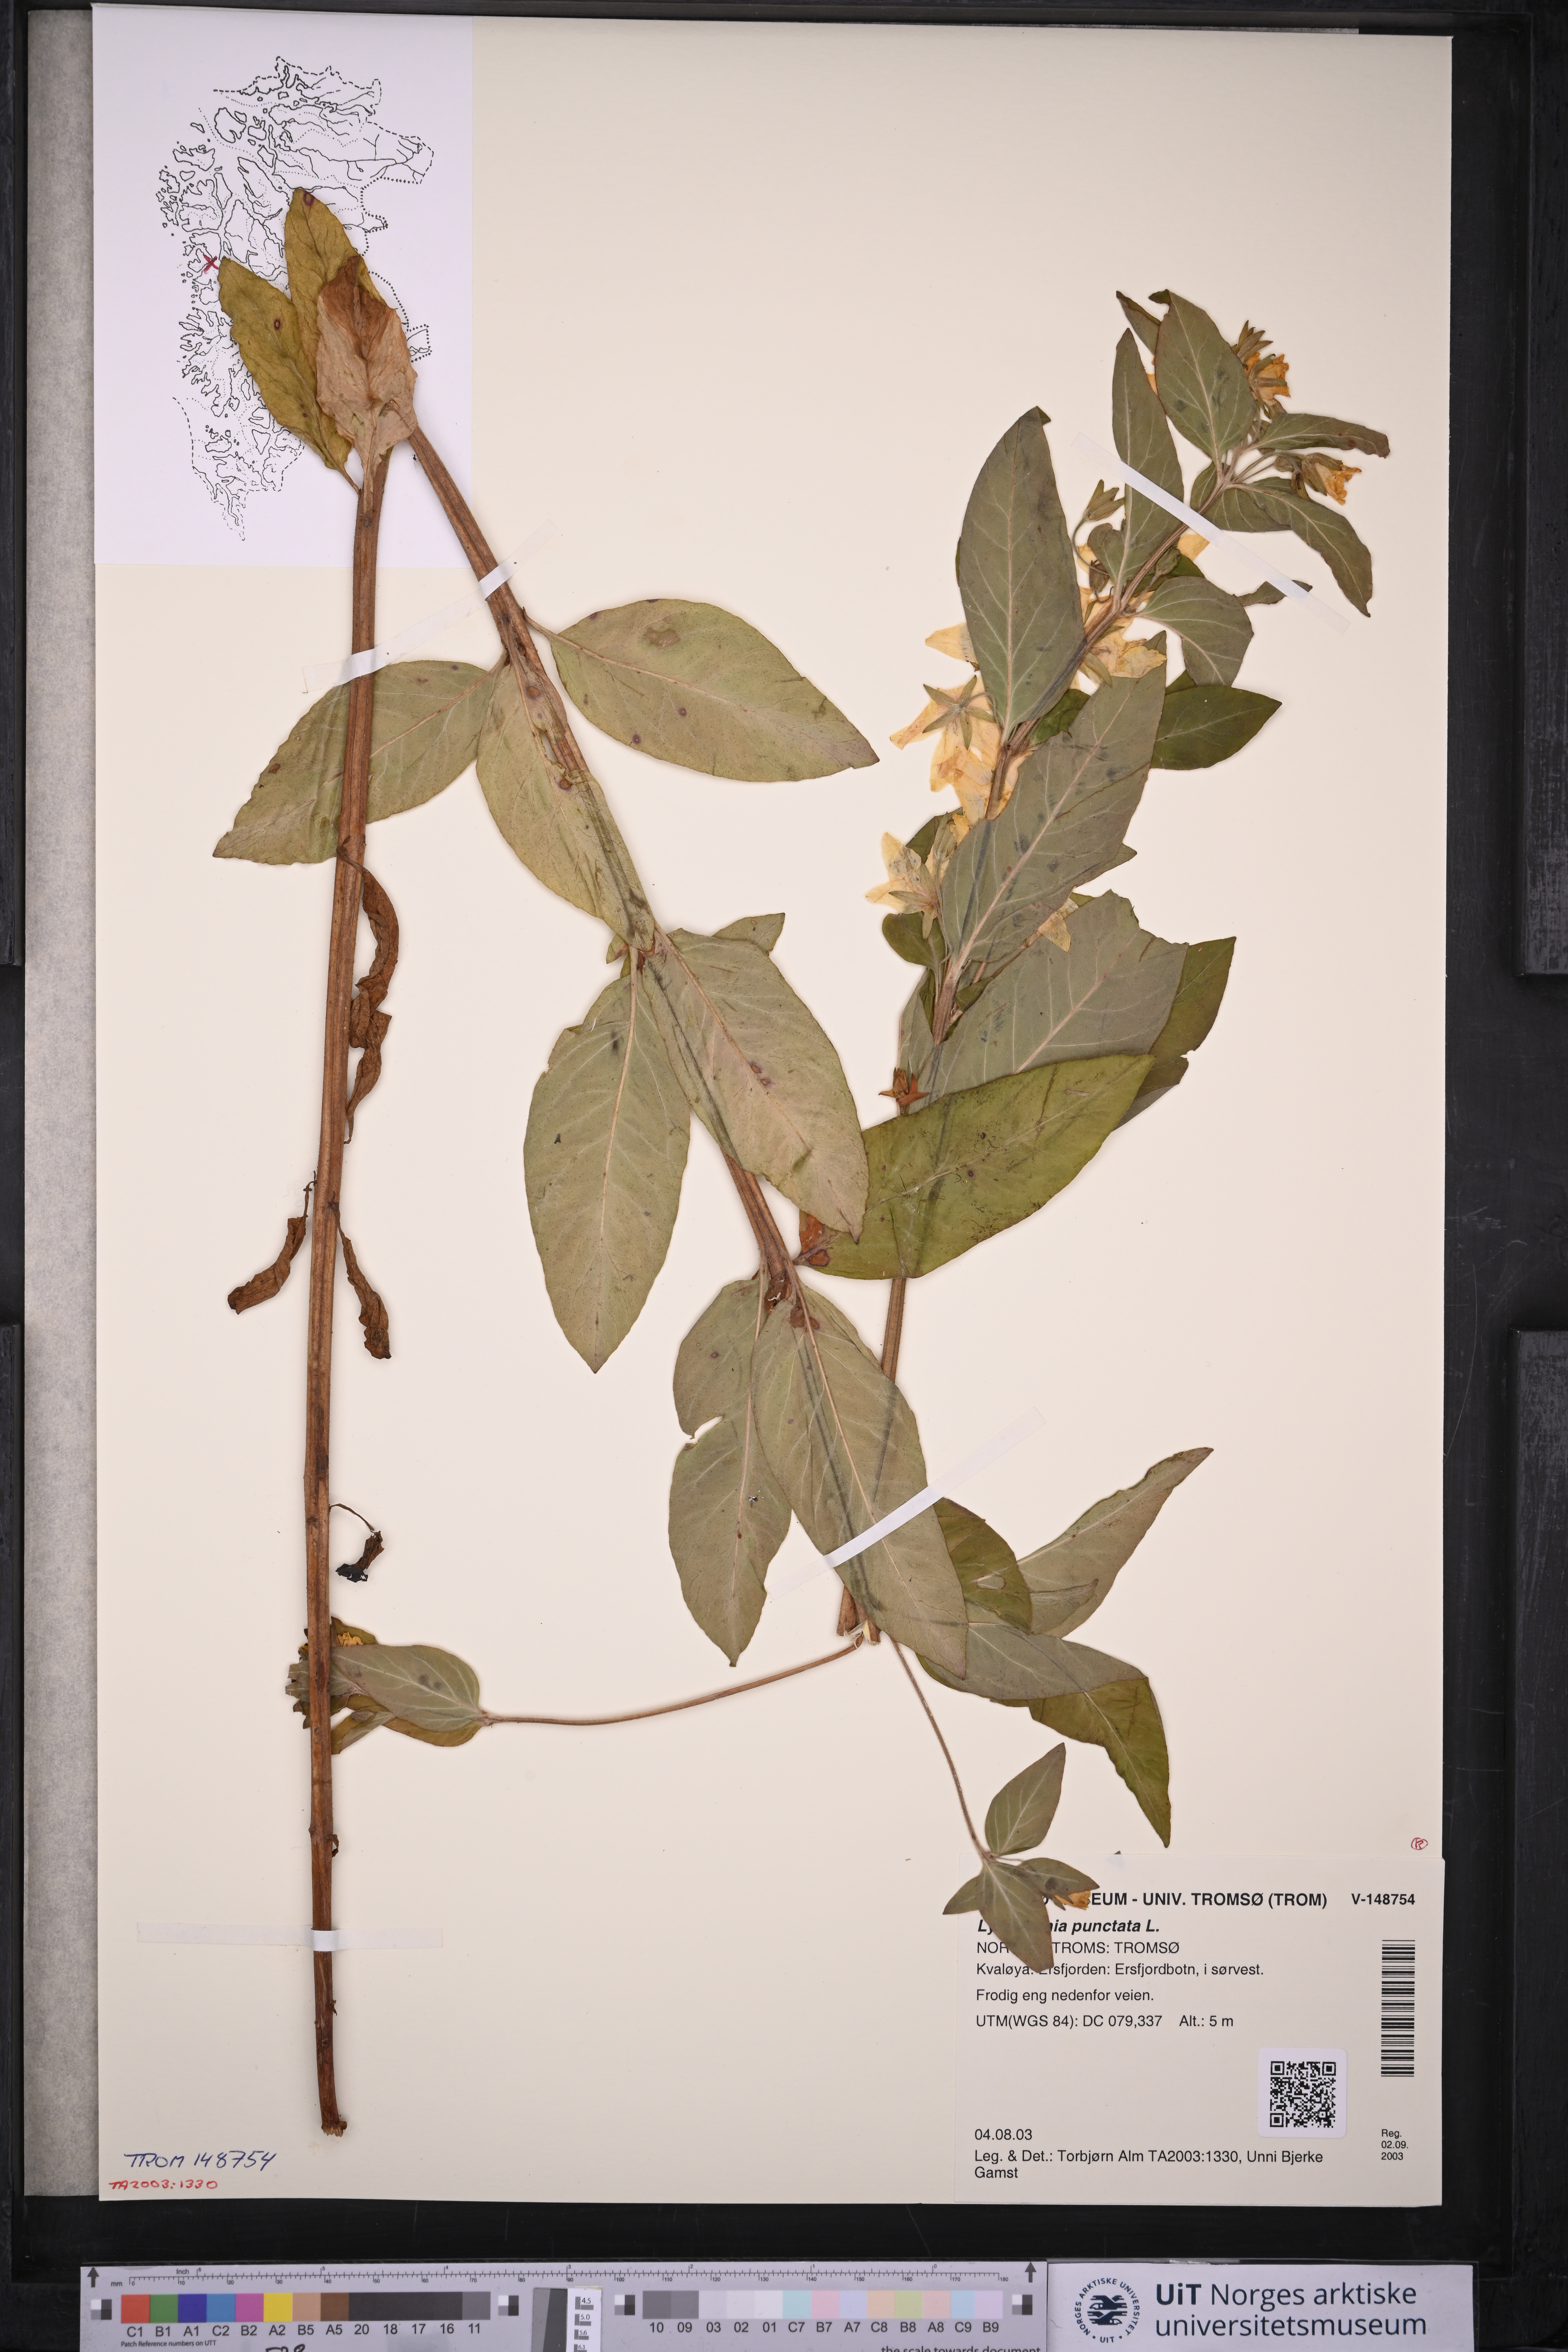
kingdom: Plantae
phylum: Tracheophyta
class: Magnoliopsida
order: Ericales
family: Primulaceae
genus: Lysimachia
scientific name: Lysimachia punctata
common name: Dotted loosestrife
